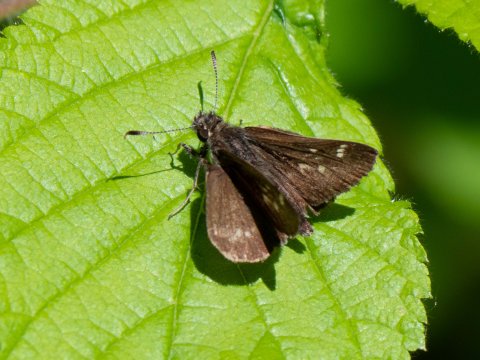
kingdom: Animalia
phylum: Arthropoda
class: Insecta
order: Lepidoptera
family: Hesperiidae
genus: Lon
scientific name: Lon hobomok
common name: Hobomok Skipper
